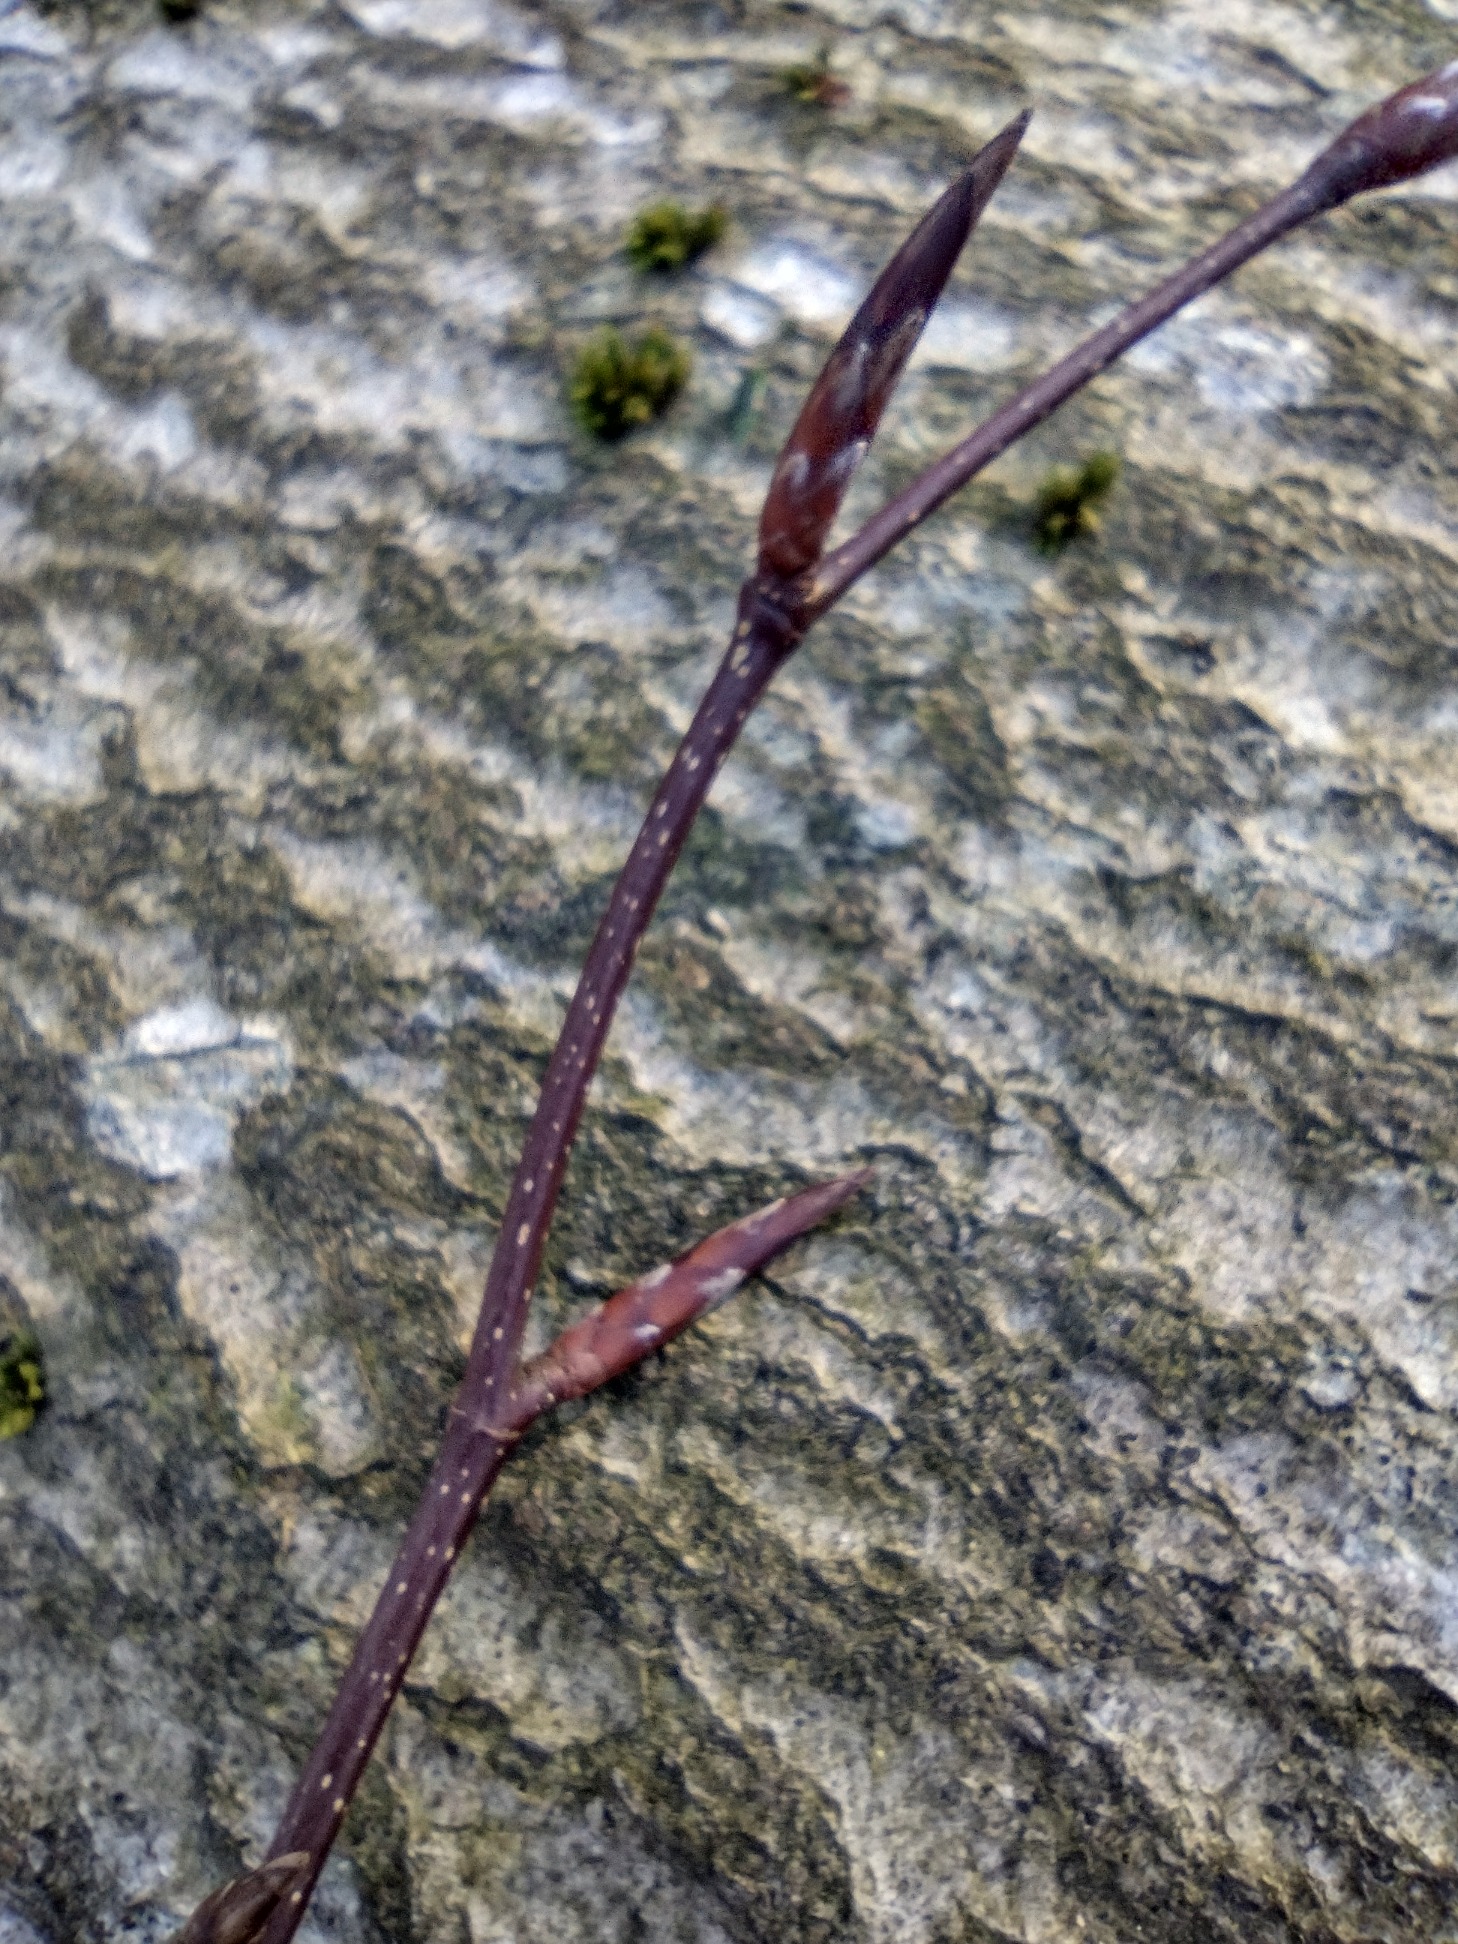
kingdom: Plantae
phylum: Tracheophyta
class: Magnoliopsida
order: Fagales
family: Fagaceae
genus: Fagus
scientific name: Fagus sylvatica
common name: Bøg
